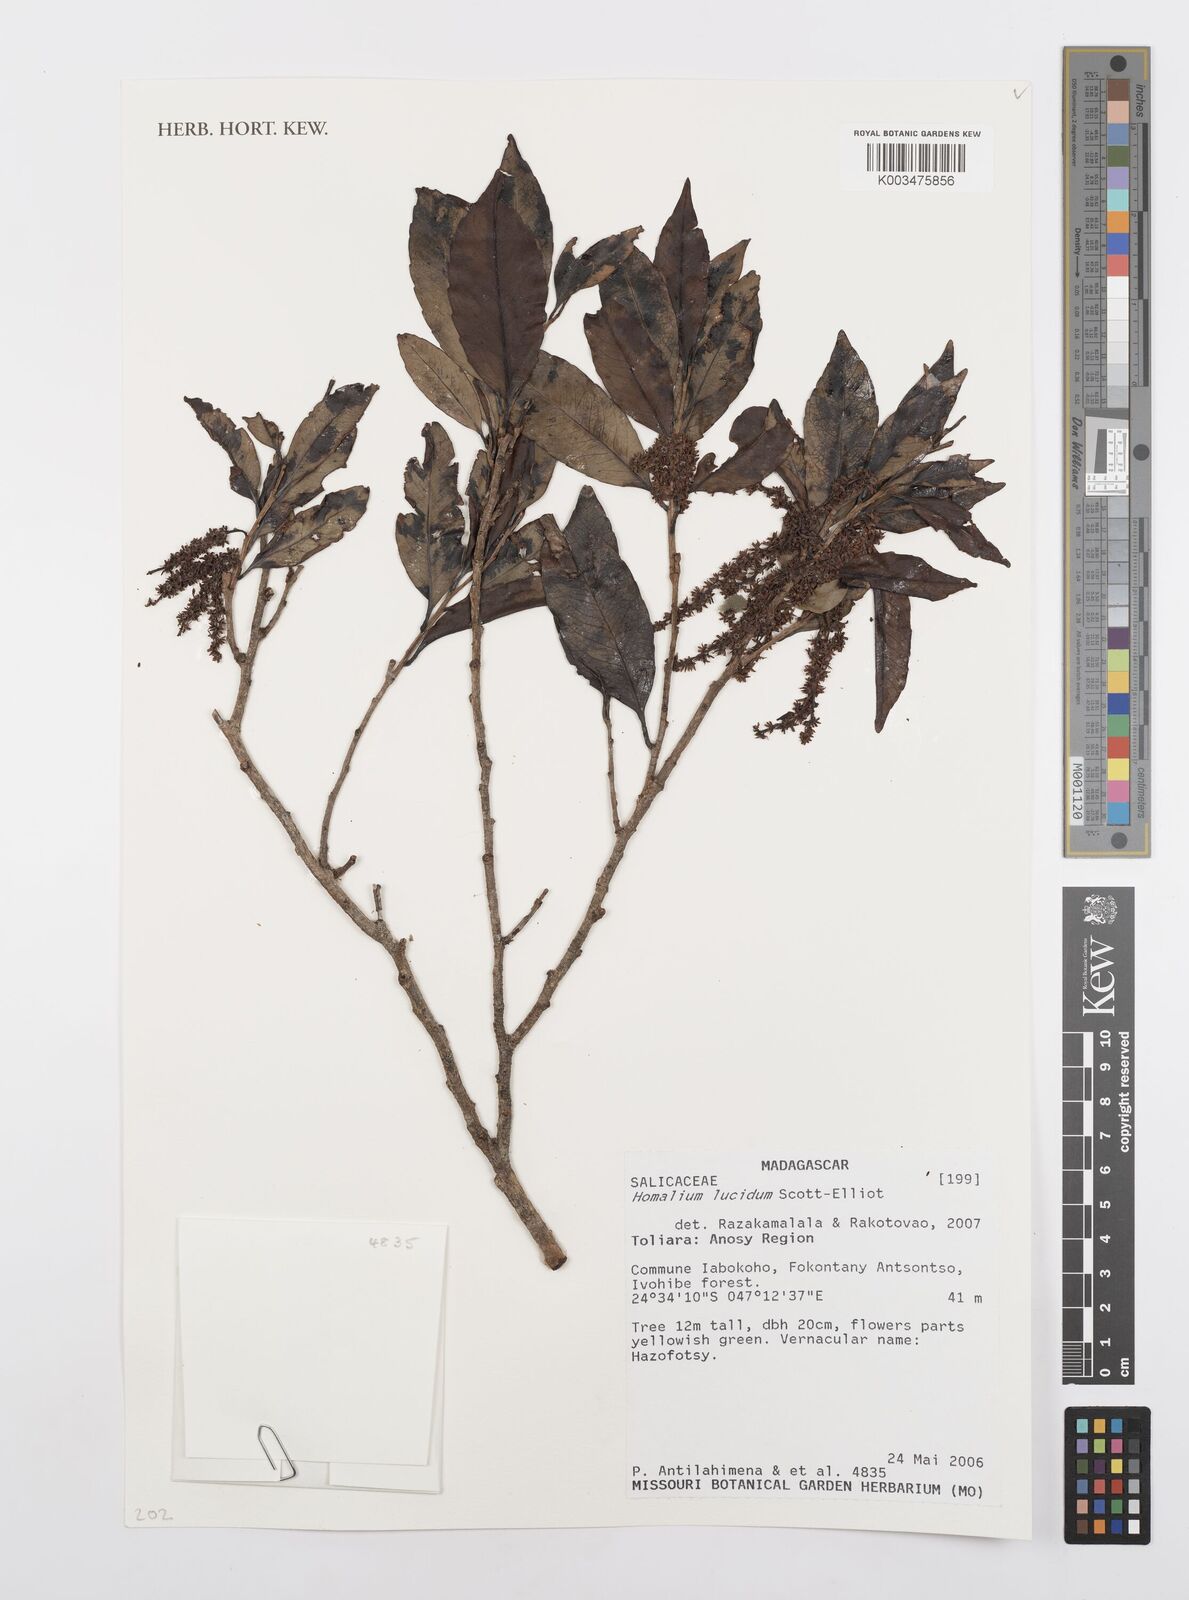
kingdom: Plantae
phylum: Tracheophyta
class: Magnoliopsida
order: Malpighiales
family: Salicaceae
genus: Homalium
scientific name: Homalium lucidum
